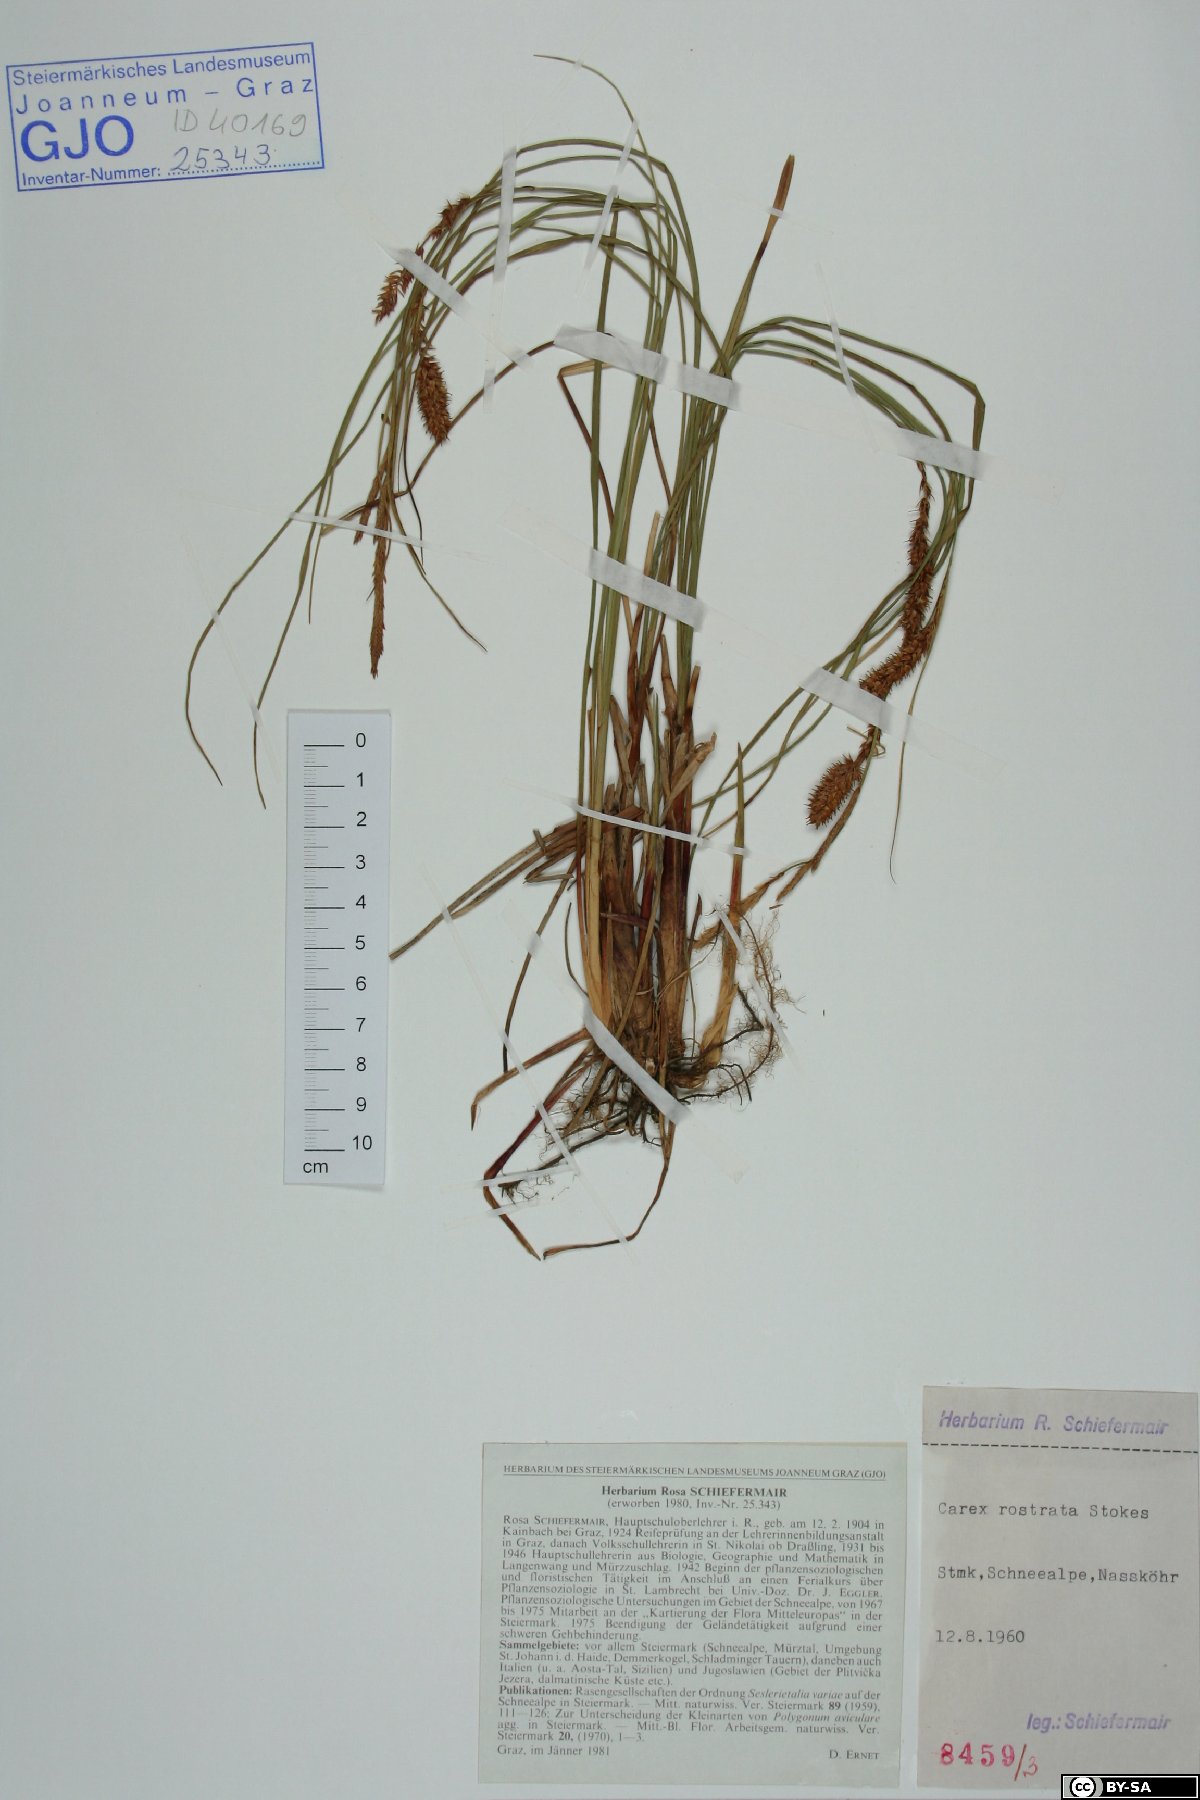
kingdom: Plantae
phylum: Tracheophyta
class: Liliopsida
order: Poales
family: Cyperaceae
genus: Carex
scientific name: Carex rostrata
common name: Bottle sedge
